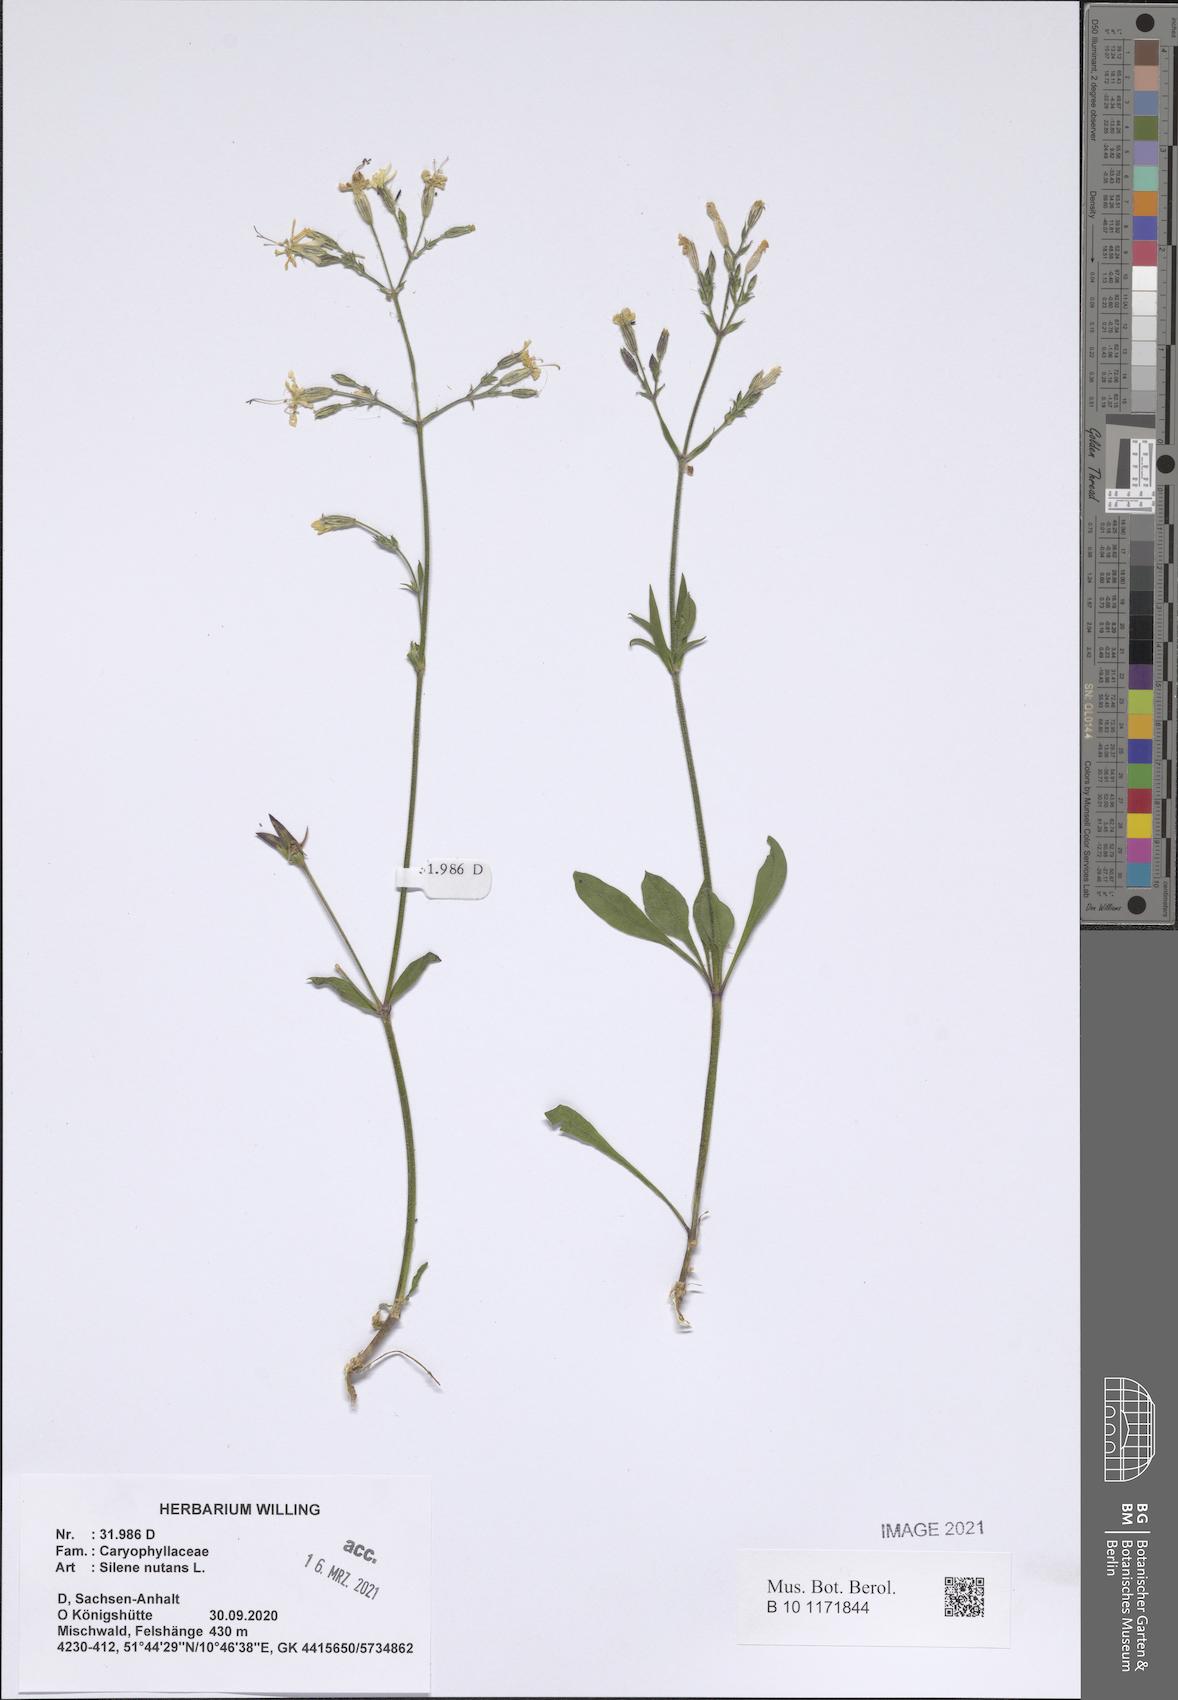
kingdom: Plantae
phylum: Tracheophyta
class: Magnoliopsida
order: Caryophyllales
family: Caryophyllaceae
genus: Silene
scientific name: Silene nutans
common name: Nottingham catchfly
